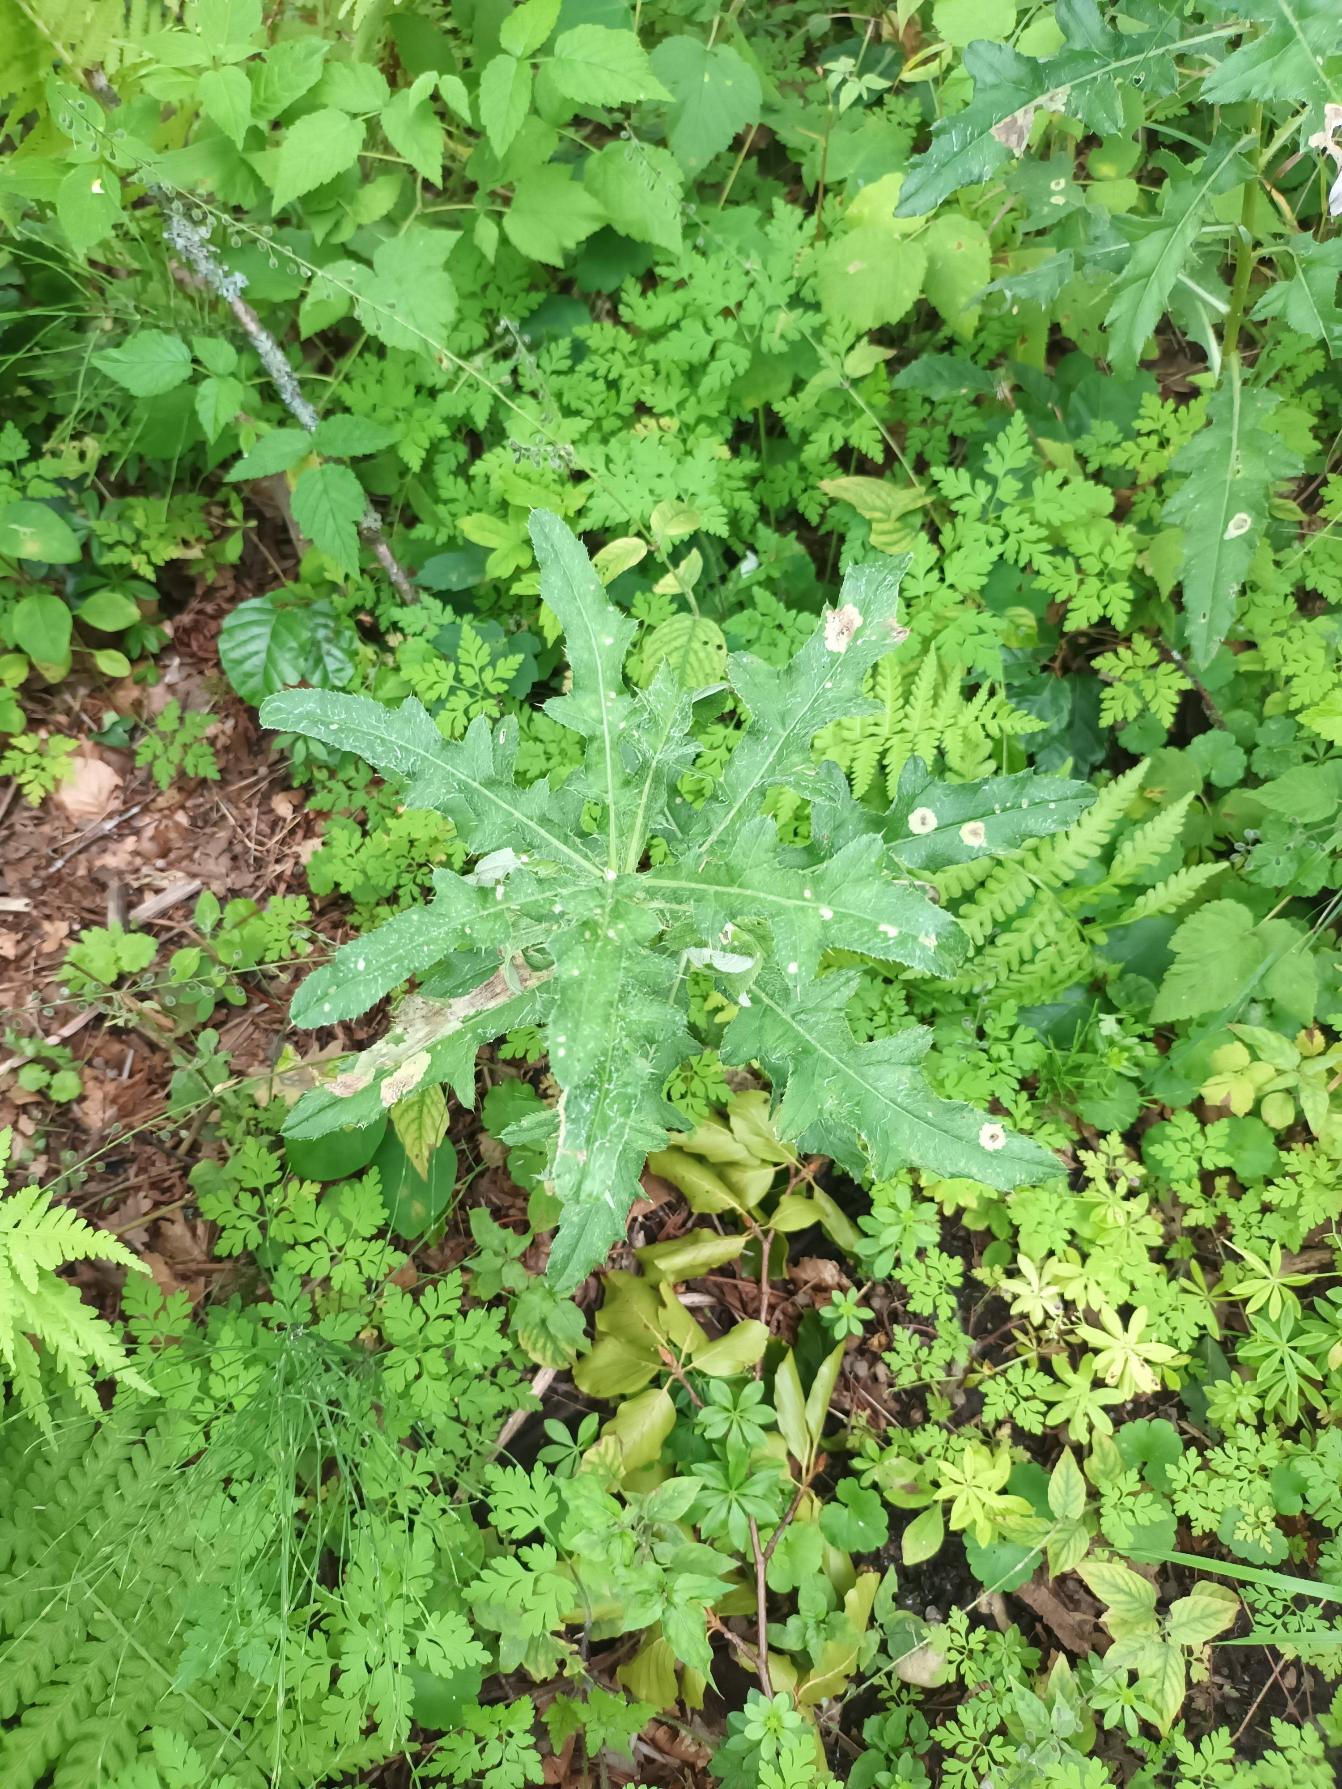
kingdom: Plantae
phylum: Tracheophyta
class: Magnoliopsida
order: Asterales
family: Asteraceae
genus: Cirsium
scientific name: Cirsium arvense
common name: Ager-tidsel
